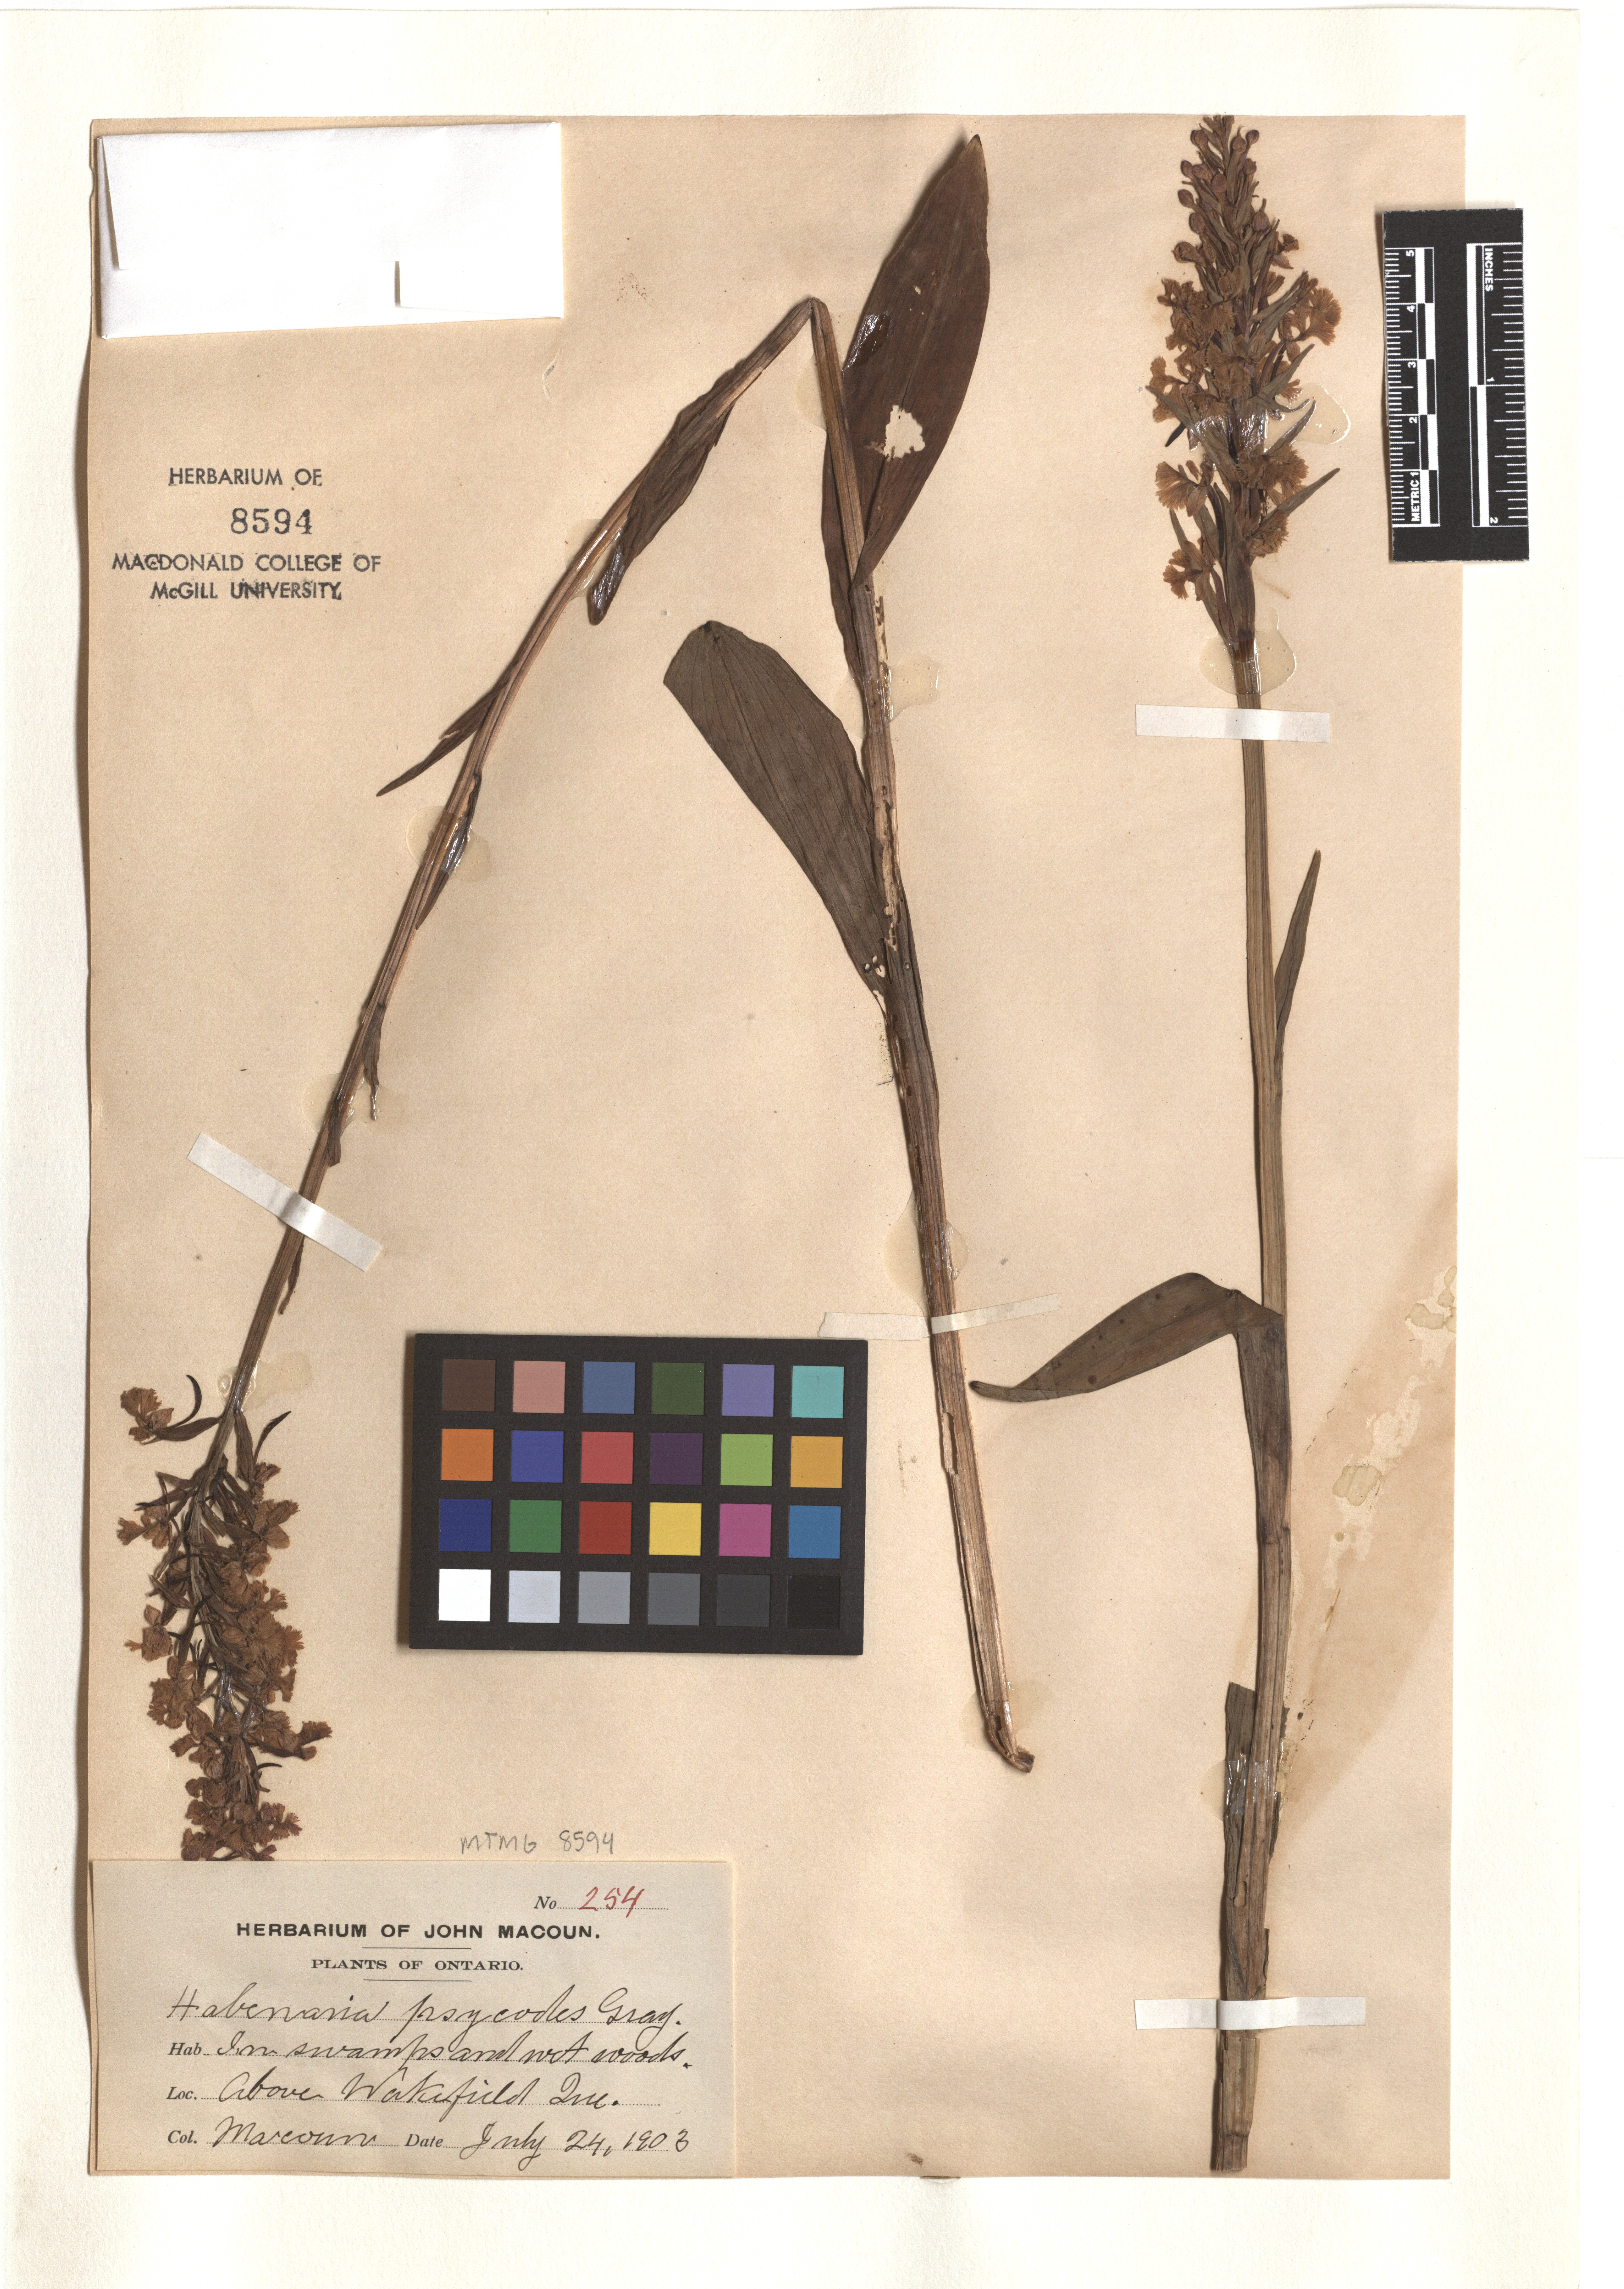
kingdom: Plantae
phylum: Tracheophyta
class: Liliopsida
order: Asparagales
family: Orchidaceae
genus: Platanthera
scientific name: Platanthera psycodes
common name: Lesser purple fringed orchid
